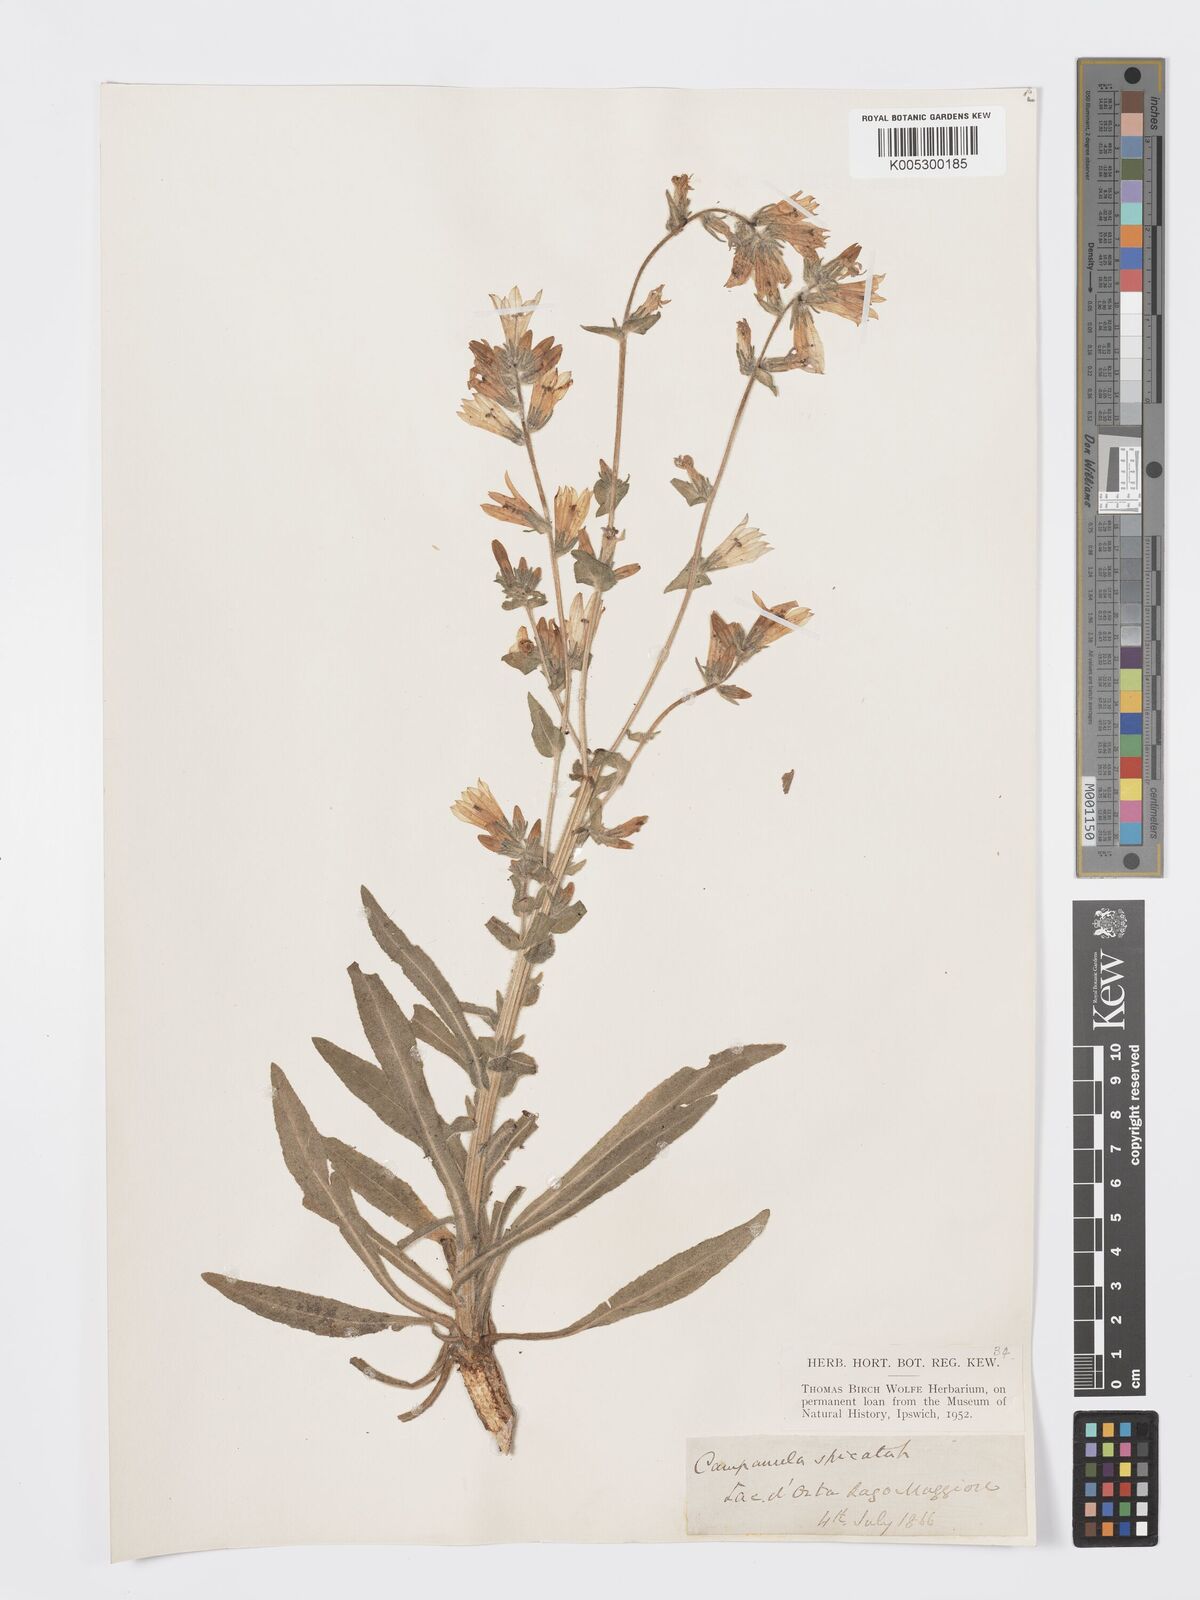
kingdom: Plantae
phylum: Tracheophyta
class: Magnoliopsida
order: Asterales
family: Campanulaceae
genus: Campanula
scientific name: Campanula spicata
